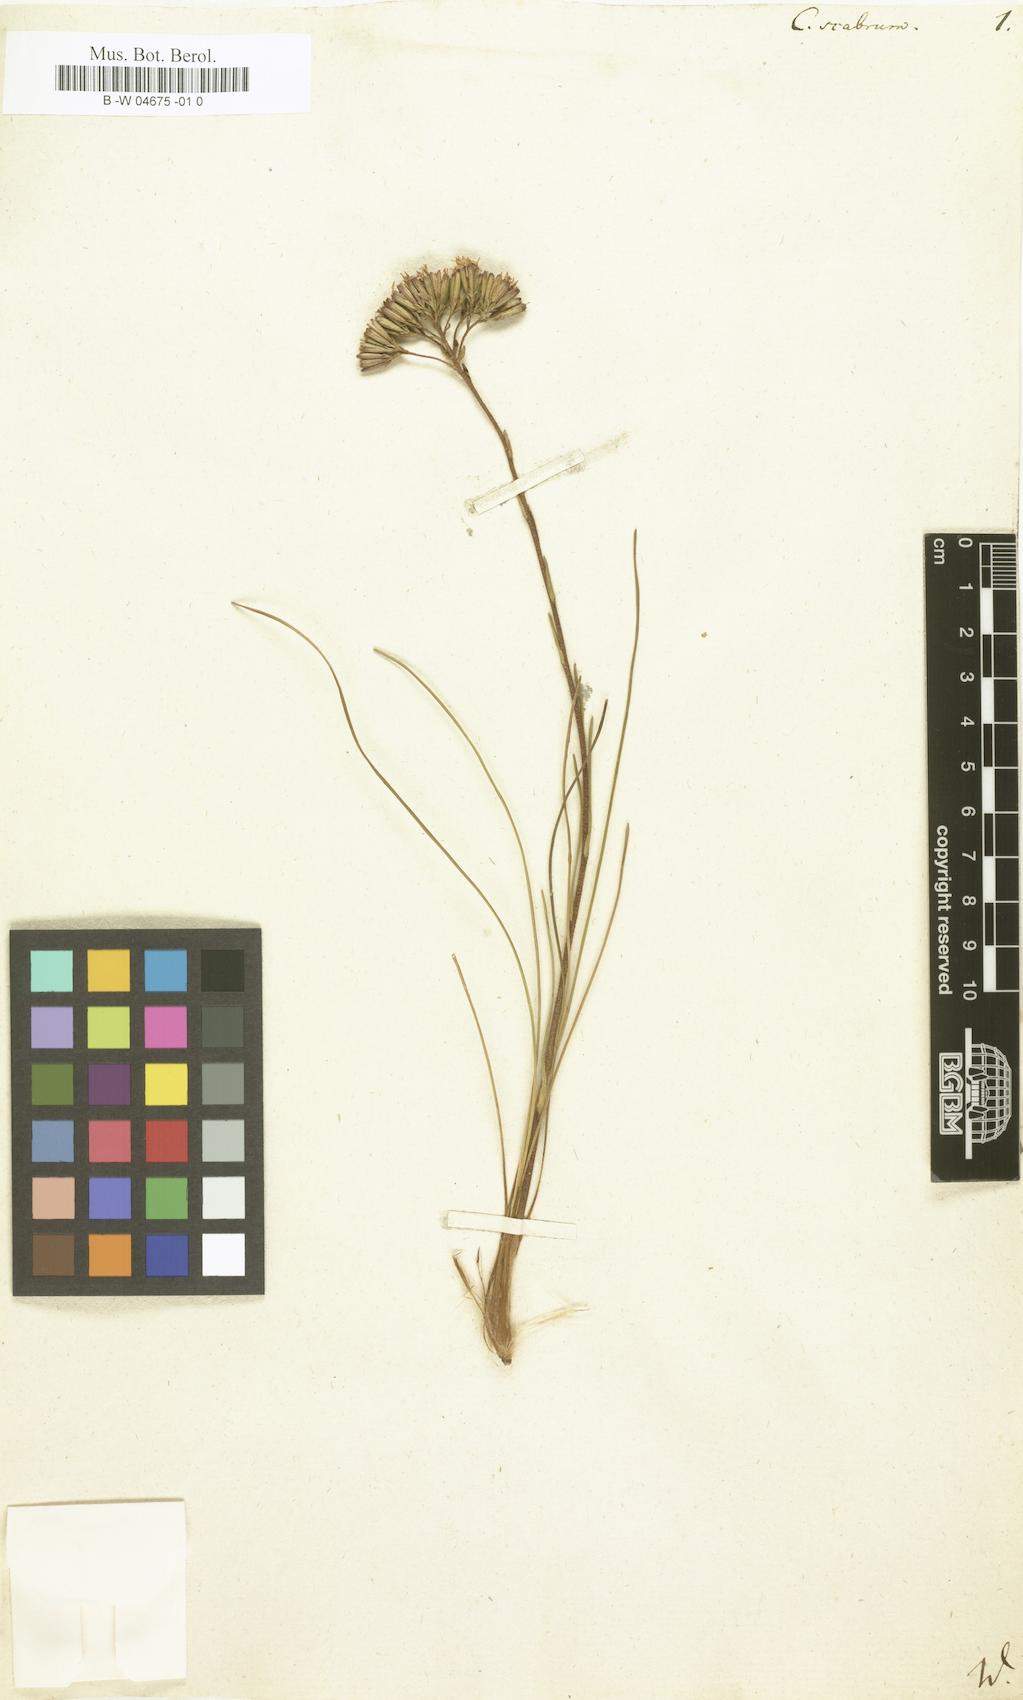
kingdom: Plantae
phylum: Tracheophyta
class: Magnoliopsida
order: Asterales
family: Asteraceae
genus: Corymbium
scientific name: Corymbium
